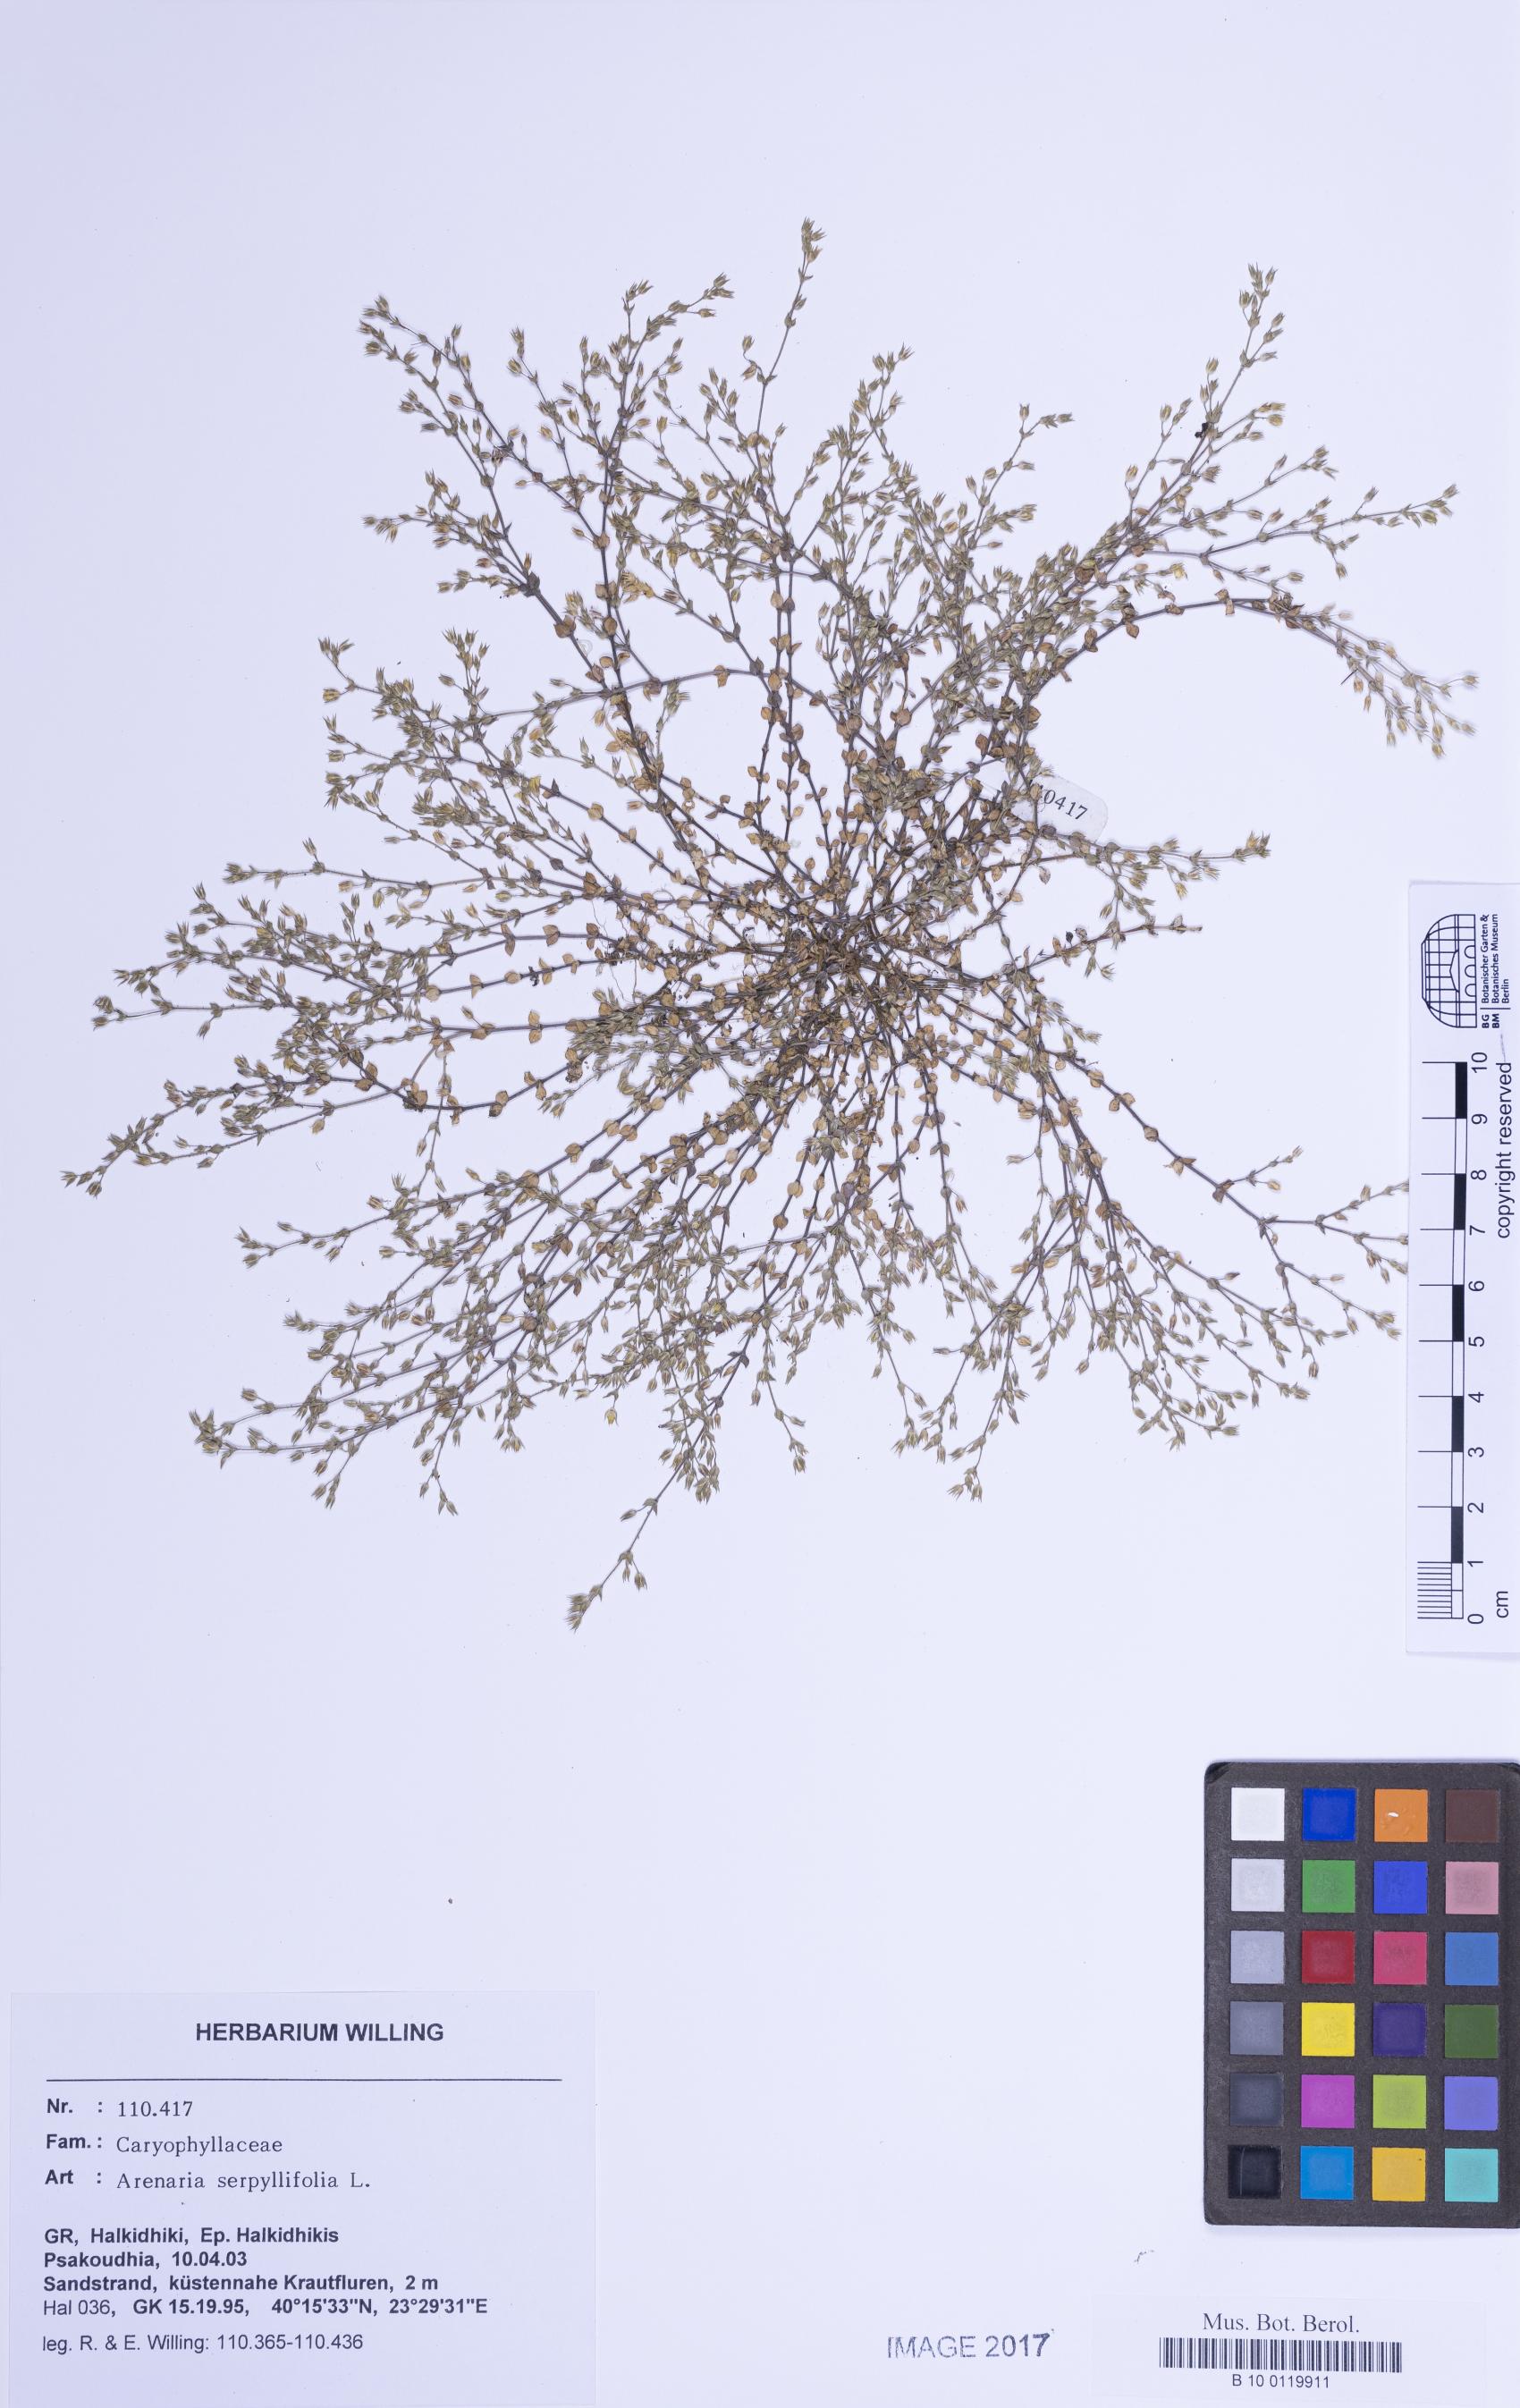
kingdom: Plantae
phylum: Tracheophyta
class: Magnoliopsida
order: Caryophyllales
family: Caryophyllaceae
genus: Arenaria
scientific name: Arenaria serpyllifolia
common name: Thyme-leaved sandwort
